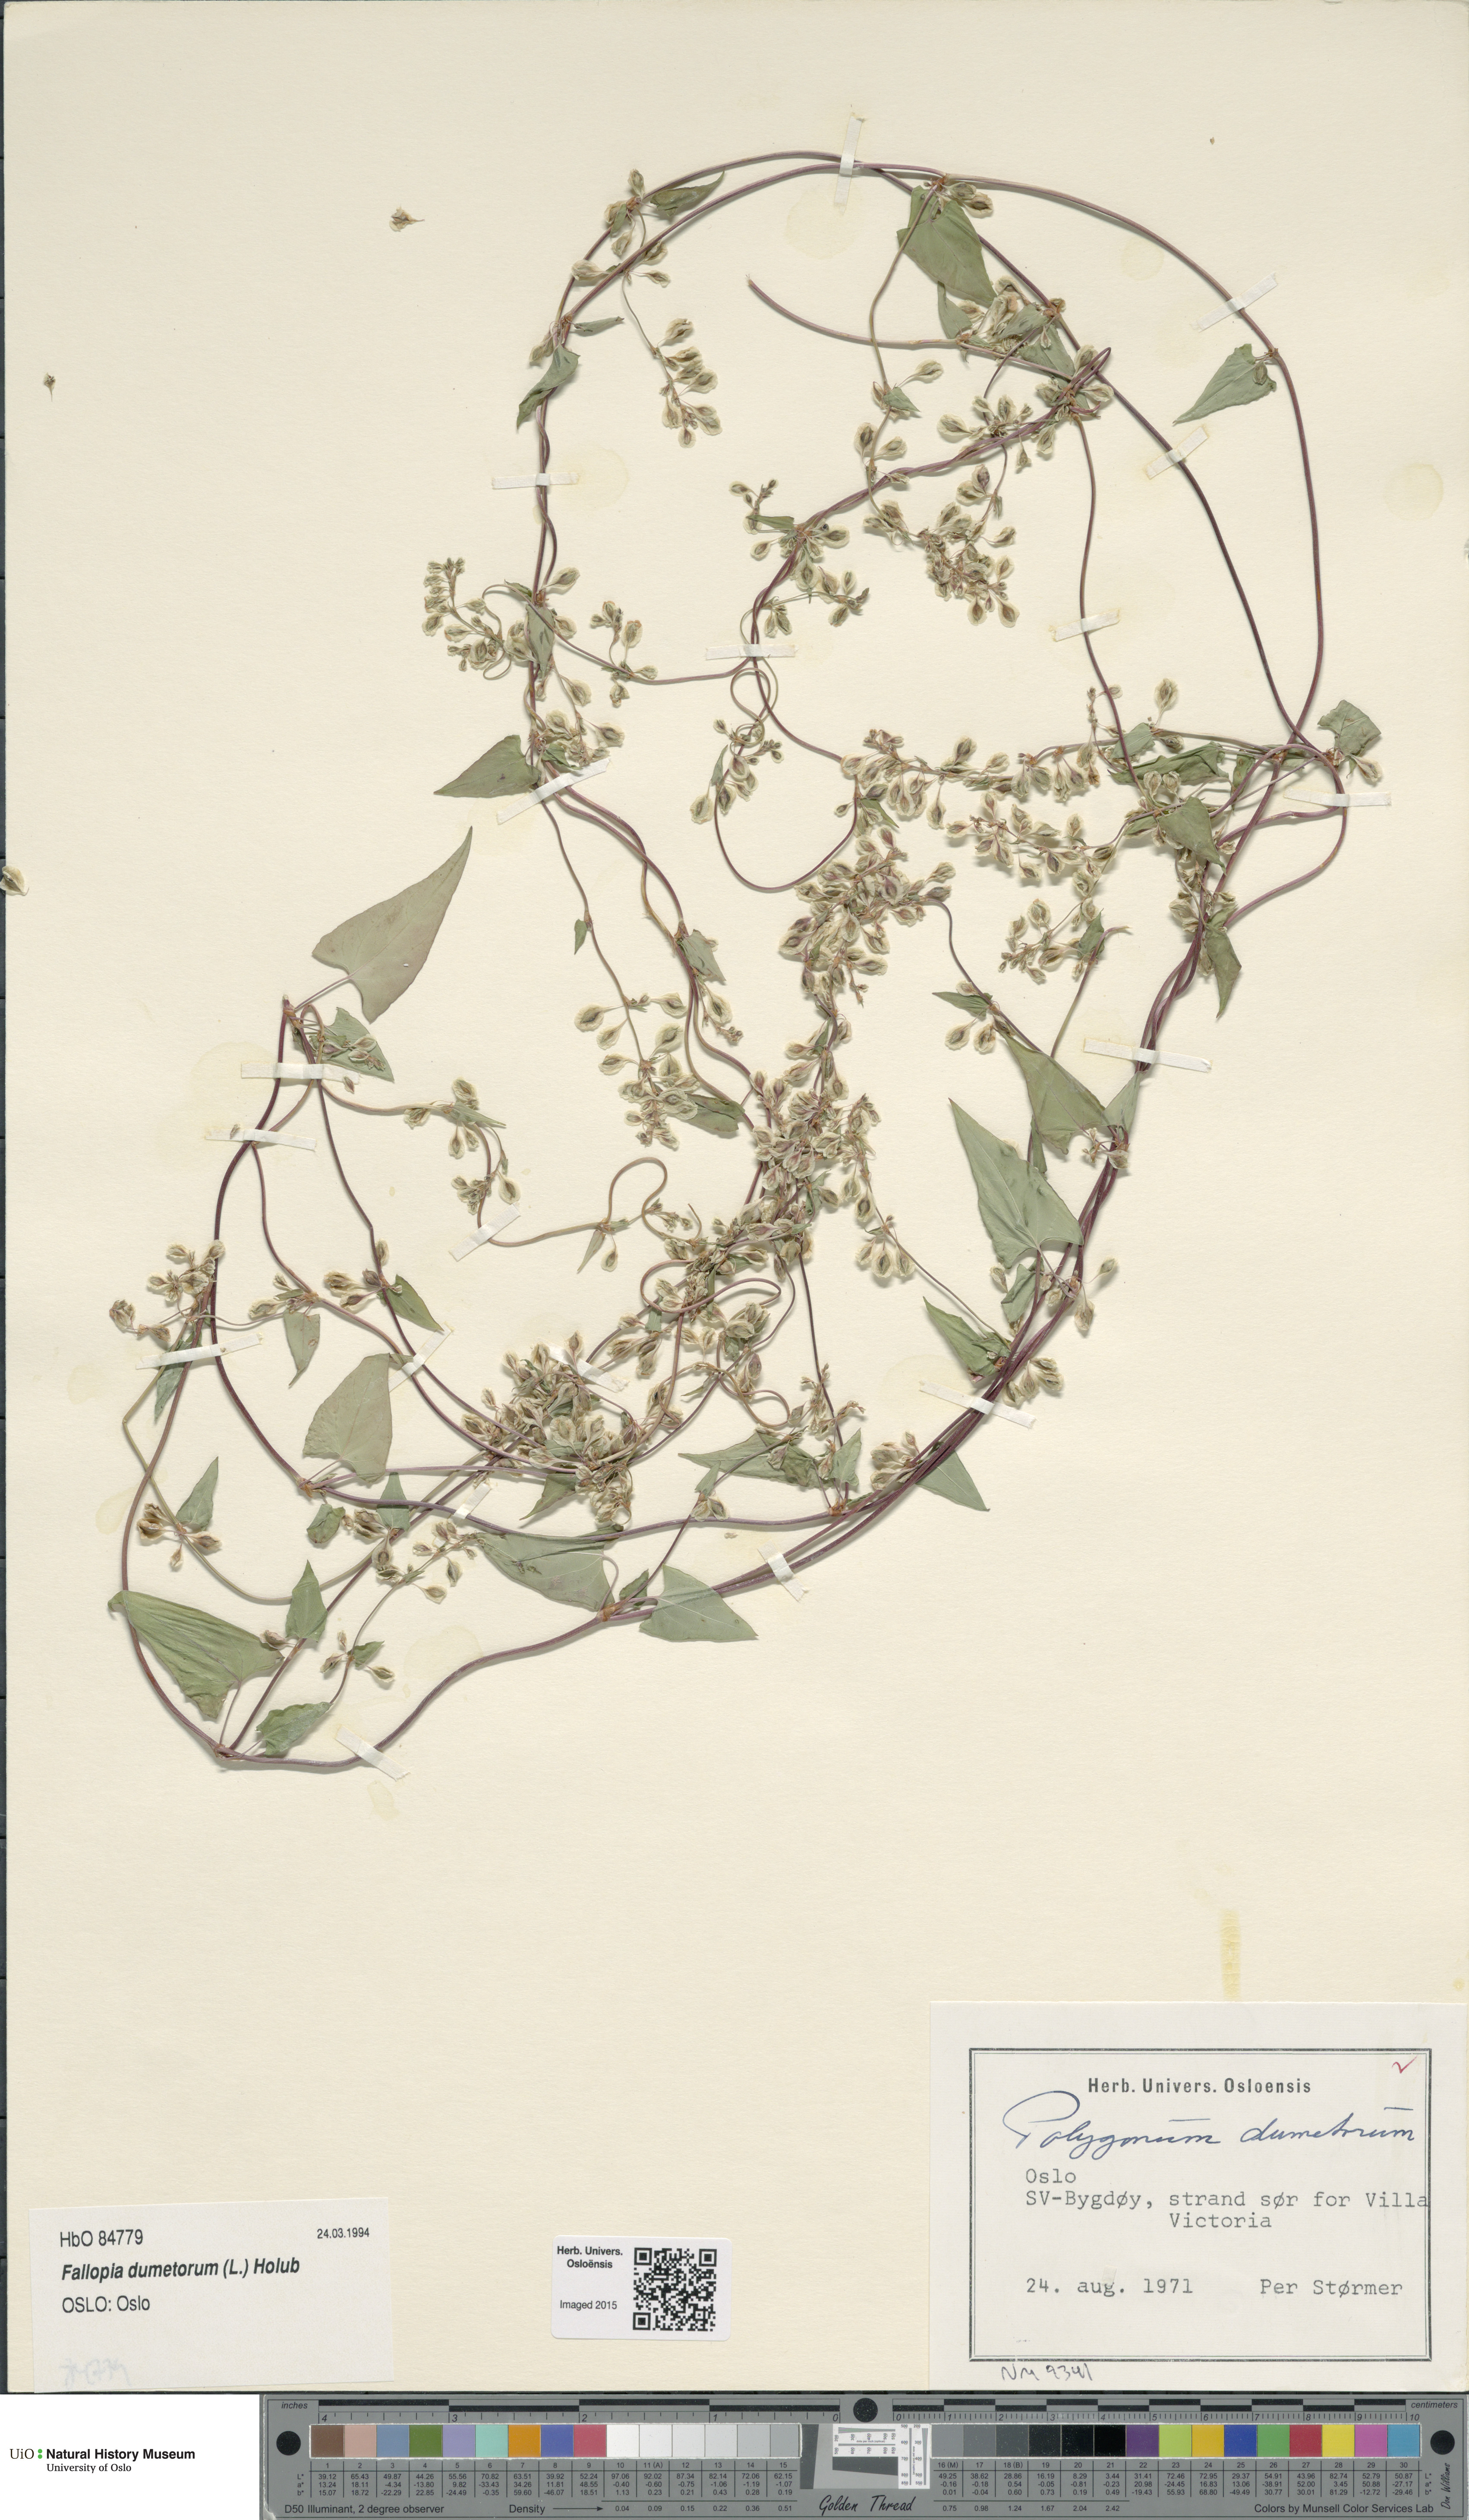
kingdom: Plantae
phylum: Tracheophyta
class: Magnoliopsida
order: Caryophyllales
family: Polygonaceae
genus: Fallopia
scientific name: Fallopia dumetorum
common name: Copse-bindweed
